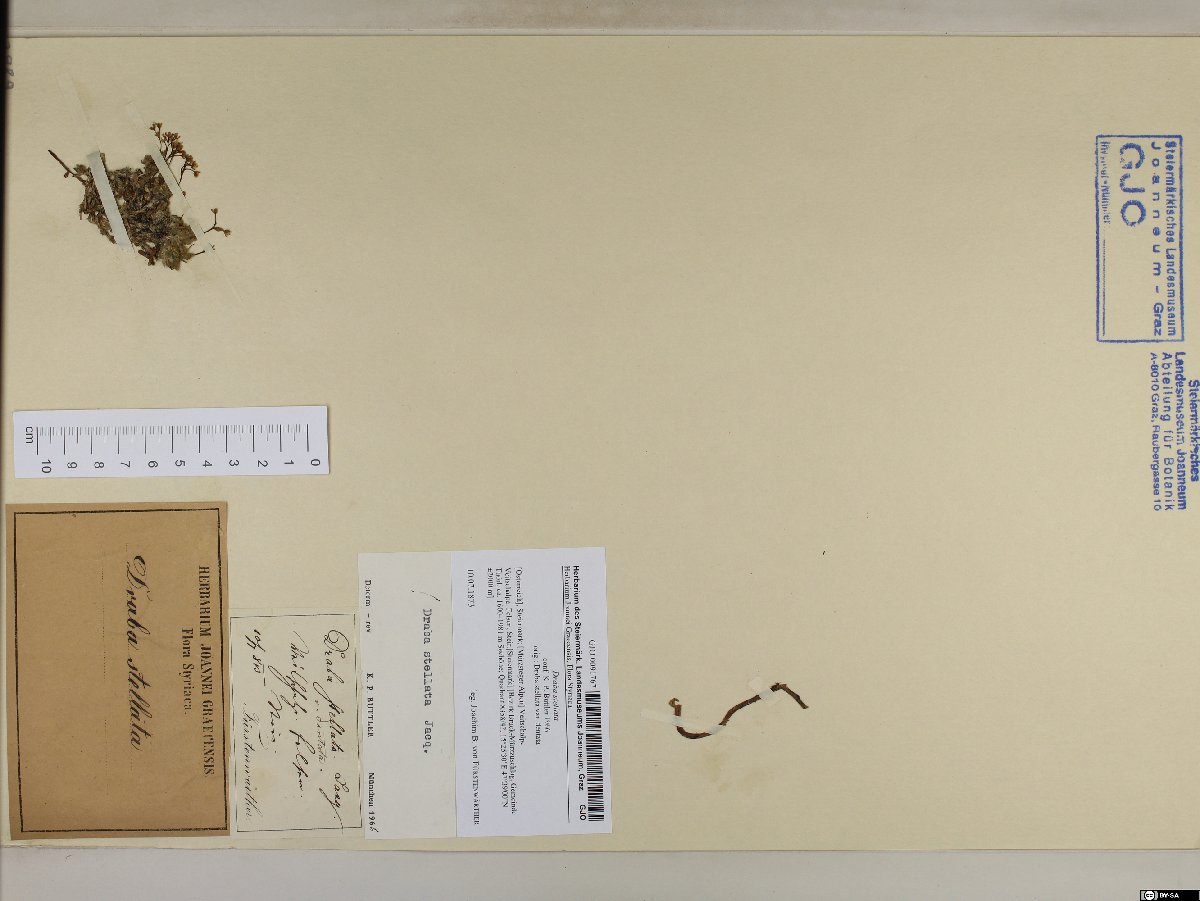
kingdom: Plantae
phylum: Tracheophyta
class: Magnoliopsida
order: Brassicales
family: Brassicaceae
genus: Draba
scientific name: Draba stellata
